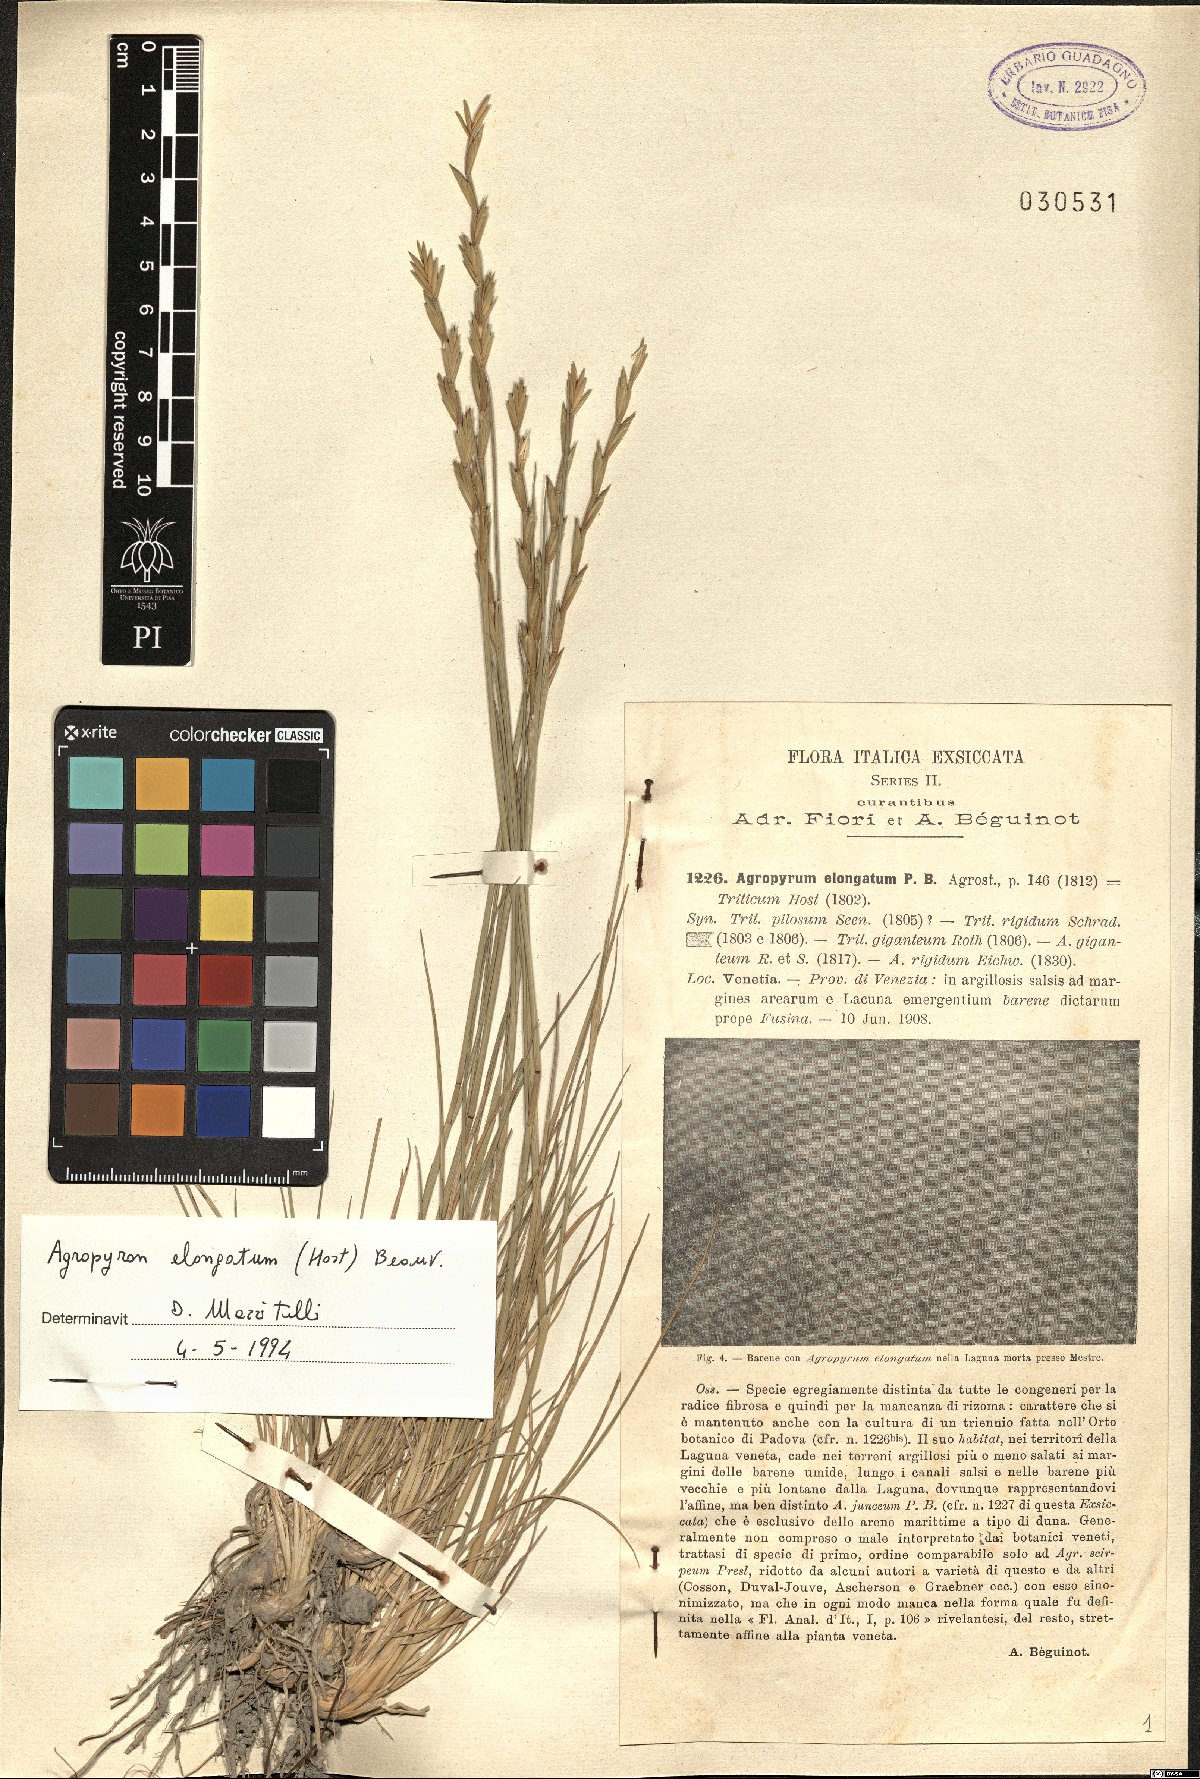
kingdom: Plantae
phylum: Tracheophyta
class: Liliopsida
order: Poales
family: Poaceae
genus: Thinopyrum
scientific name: Thinopyrum elongatum
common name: Tall wheatgrass
